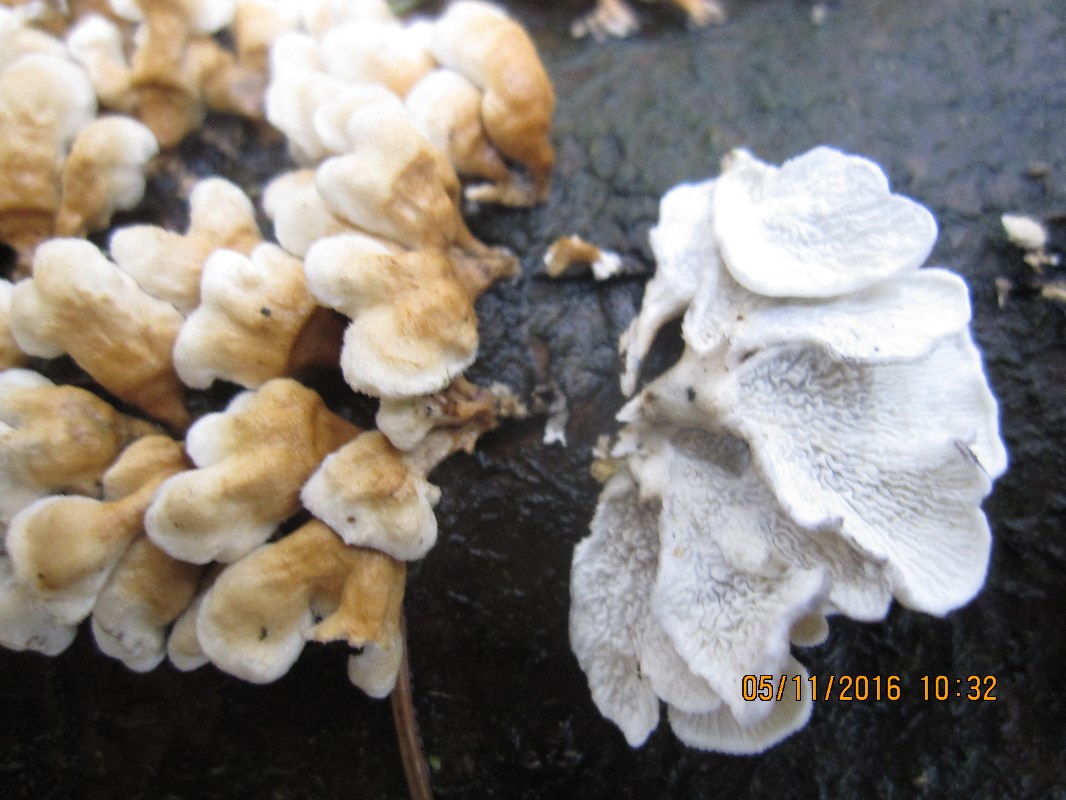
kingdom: Fungi
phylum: Basidiomycota
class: Agaricomycetes
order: Amylocorticiales
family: Amylocorticiaceae
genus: Plicaturopsis
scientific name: Plicaturopsis crispa
